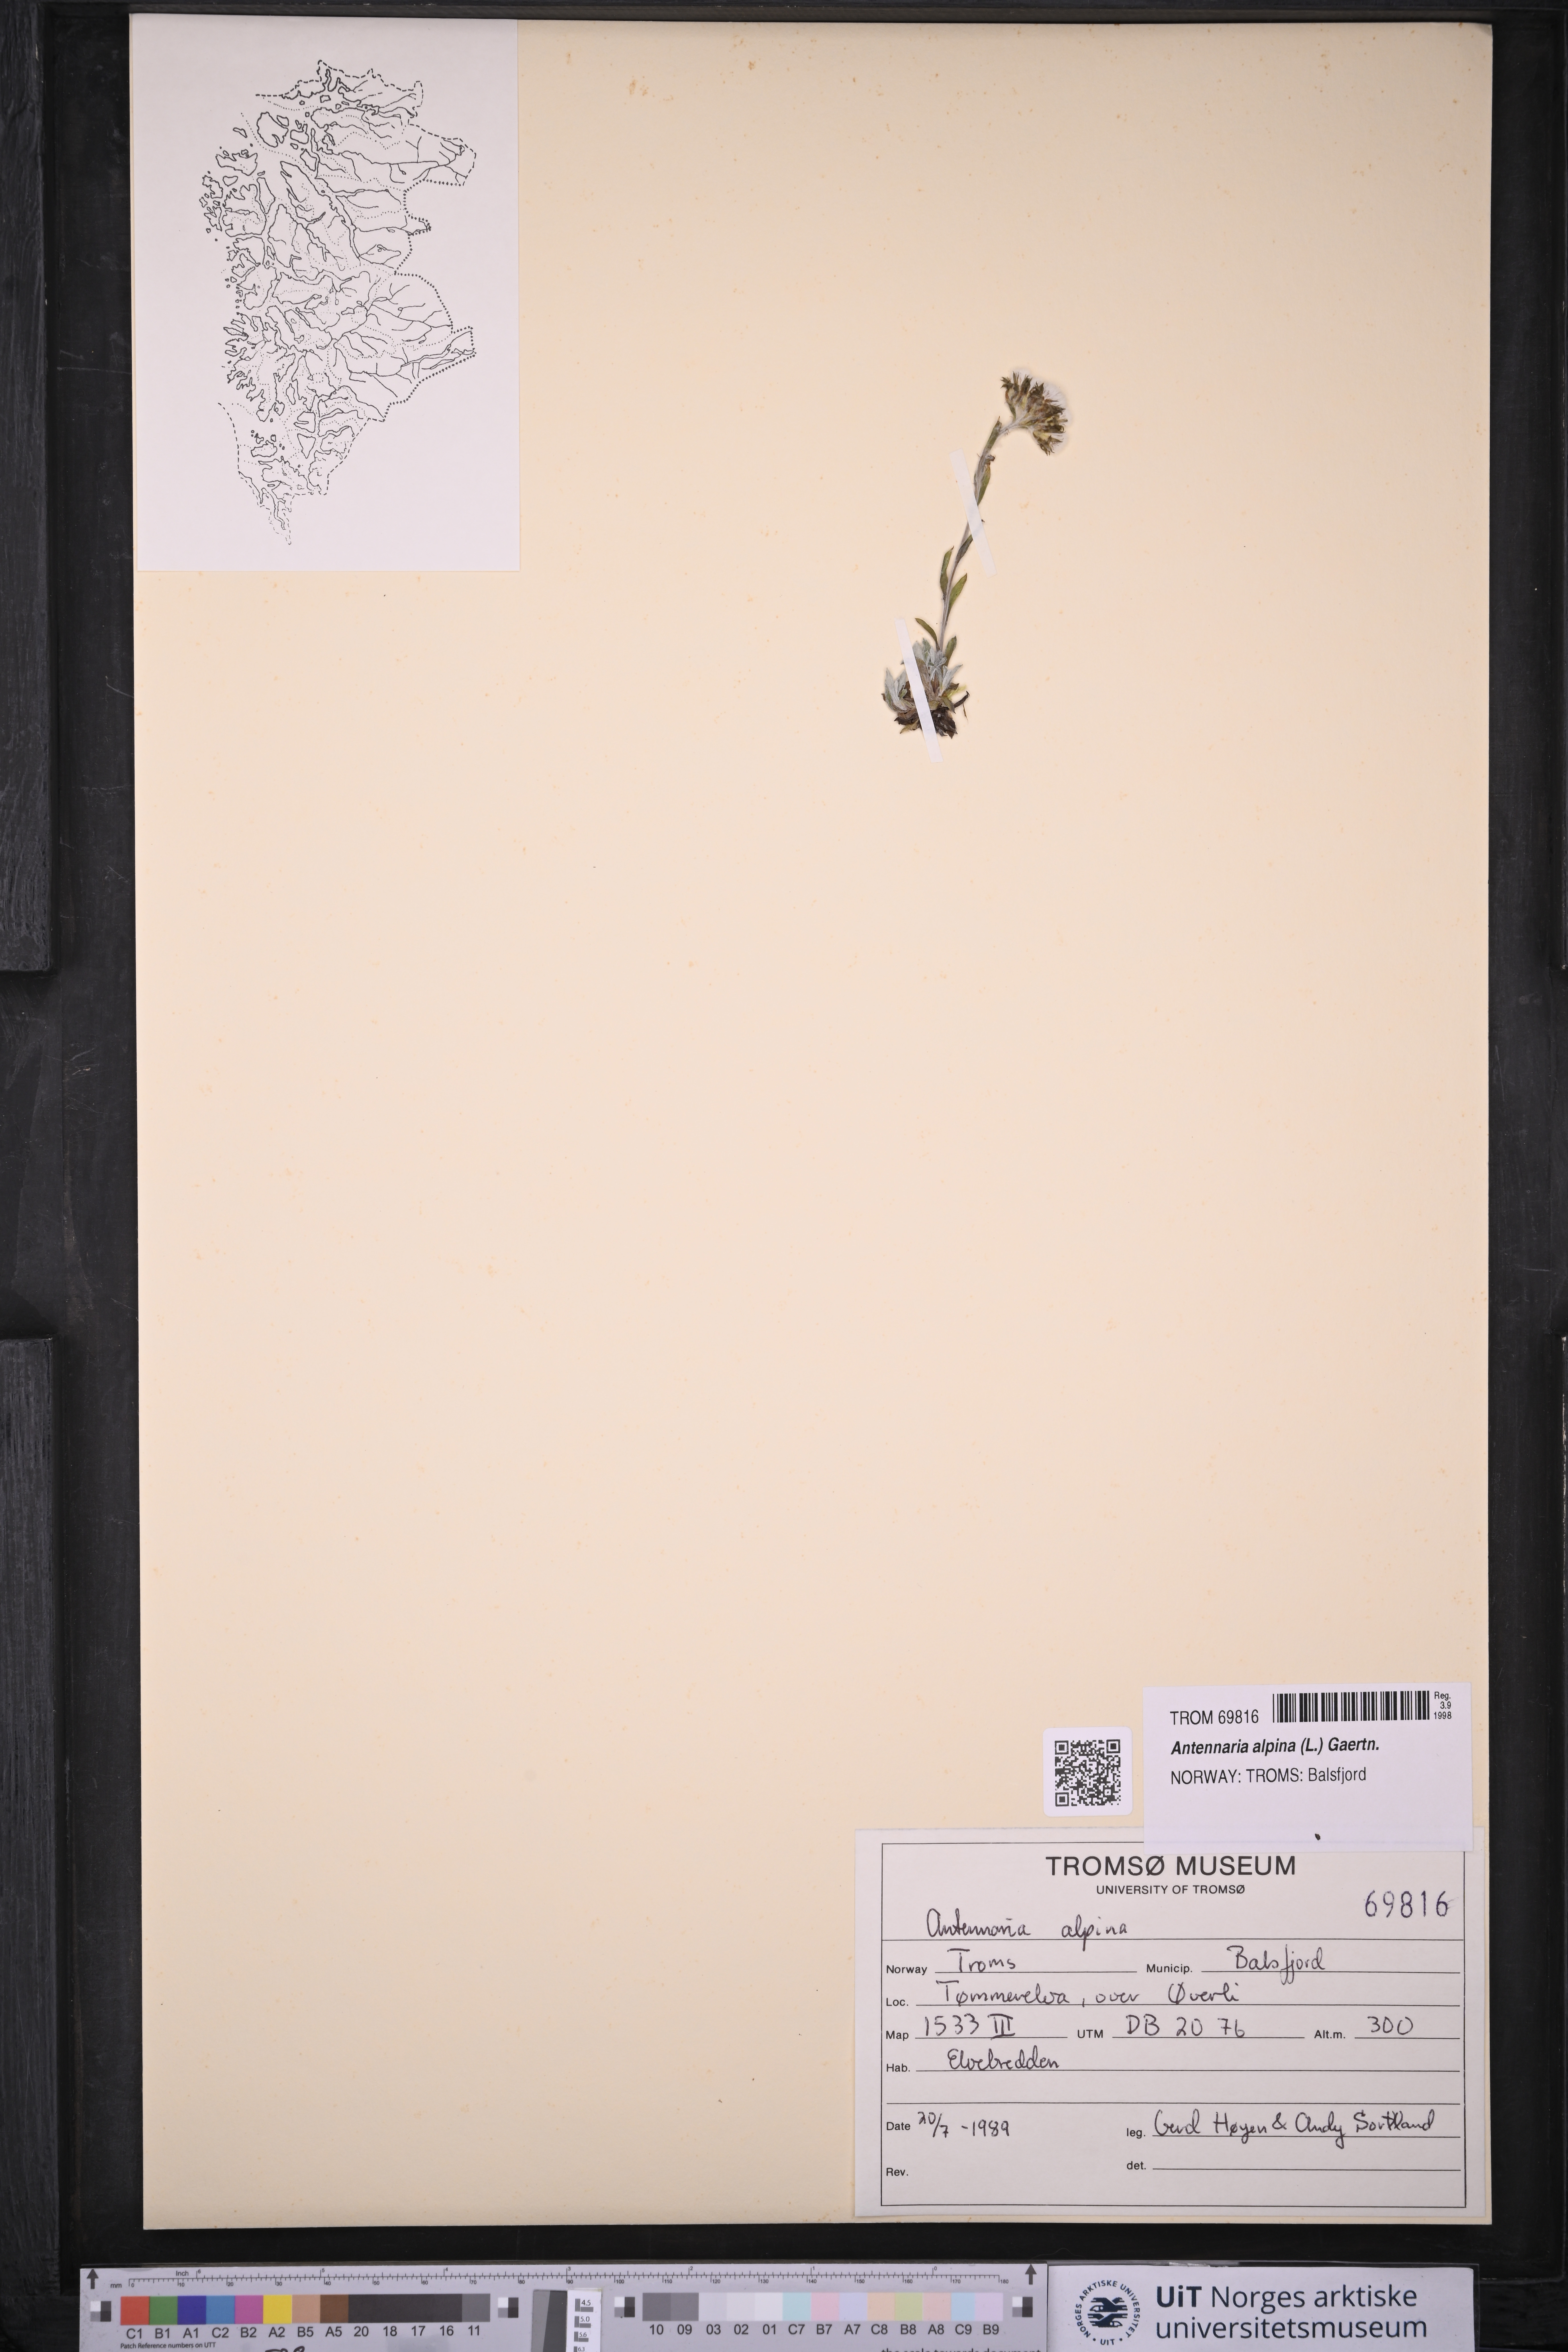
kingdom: Plantae
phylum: Tracheophyta
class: Magnoliopsida
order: Asterales
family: Asteraceae
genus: Antennaria
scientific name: Antennaria alpina
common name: Alpine pussytoes
